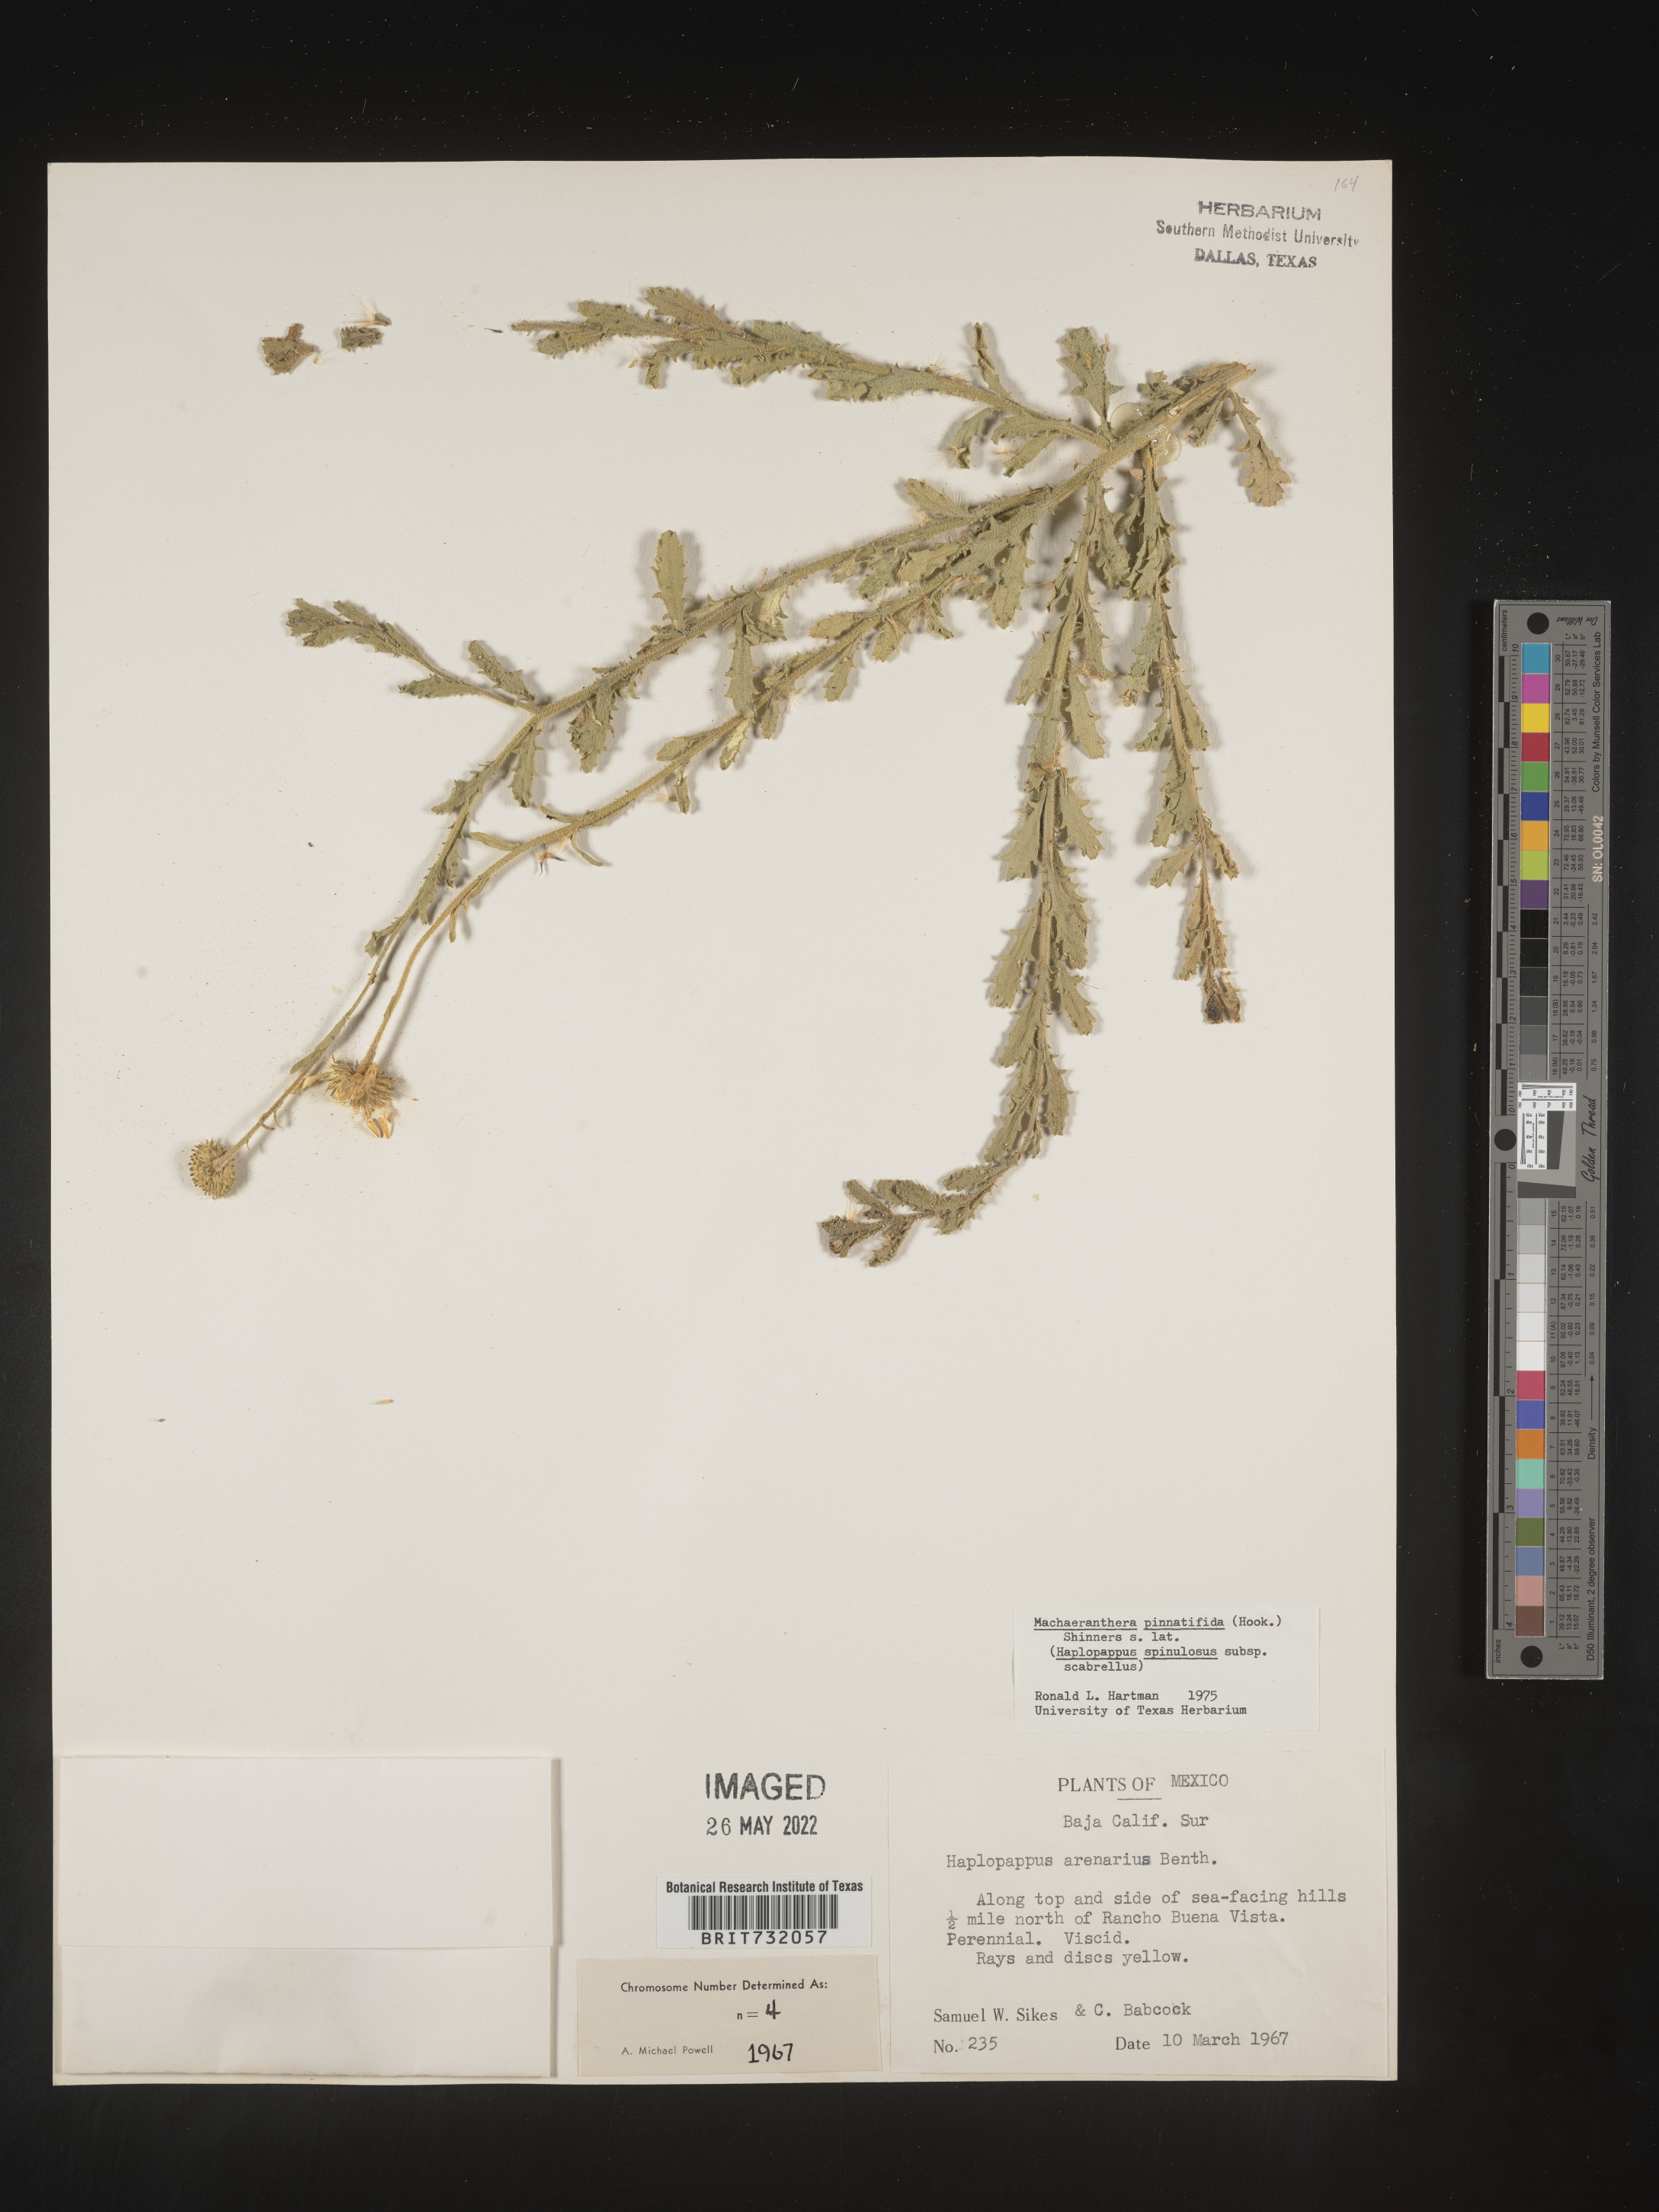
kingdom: Plantae
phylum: Tracheophyta
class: Magnoliopsida
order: Asterales
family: Asteraceae
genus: Xanthisma
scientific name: Xanthisma spinulosum
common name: Spiny goldenweed
